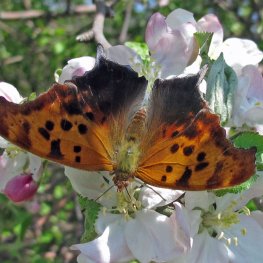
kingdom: Animalia
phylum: Arthropoda
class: Insecta
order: Lepidoptera
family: Nymphalidae
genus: Polygonia
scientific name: Polygonia interrogationis
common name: Question Mark
